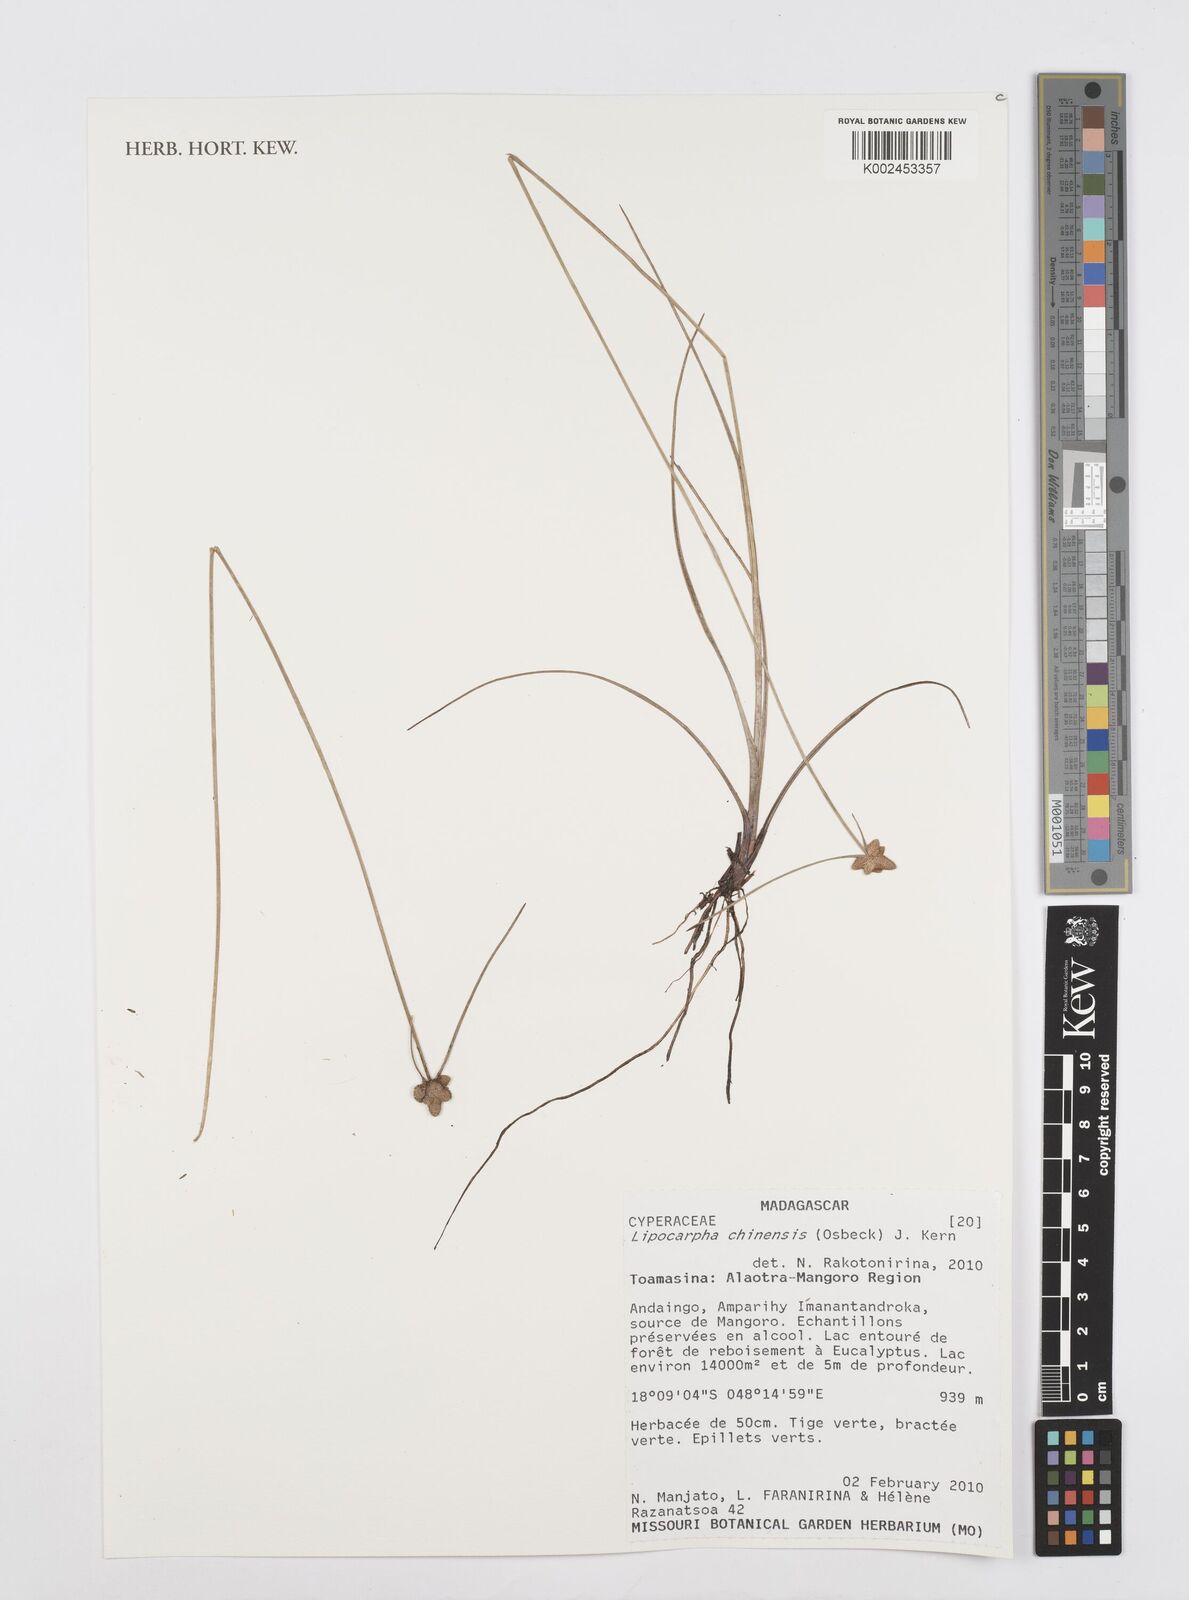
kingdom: Plantae
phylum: Tracheophyta
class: Liliopsida
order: Poales
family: Cyperaceae
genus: Cyperus
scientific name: Cyperus
